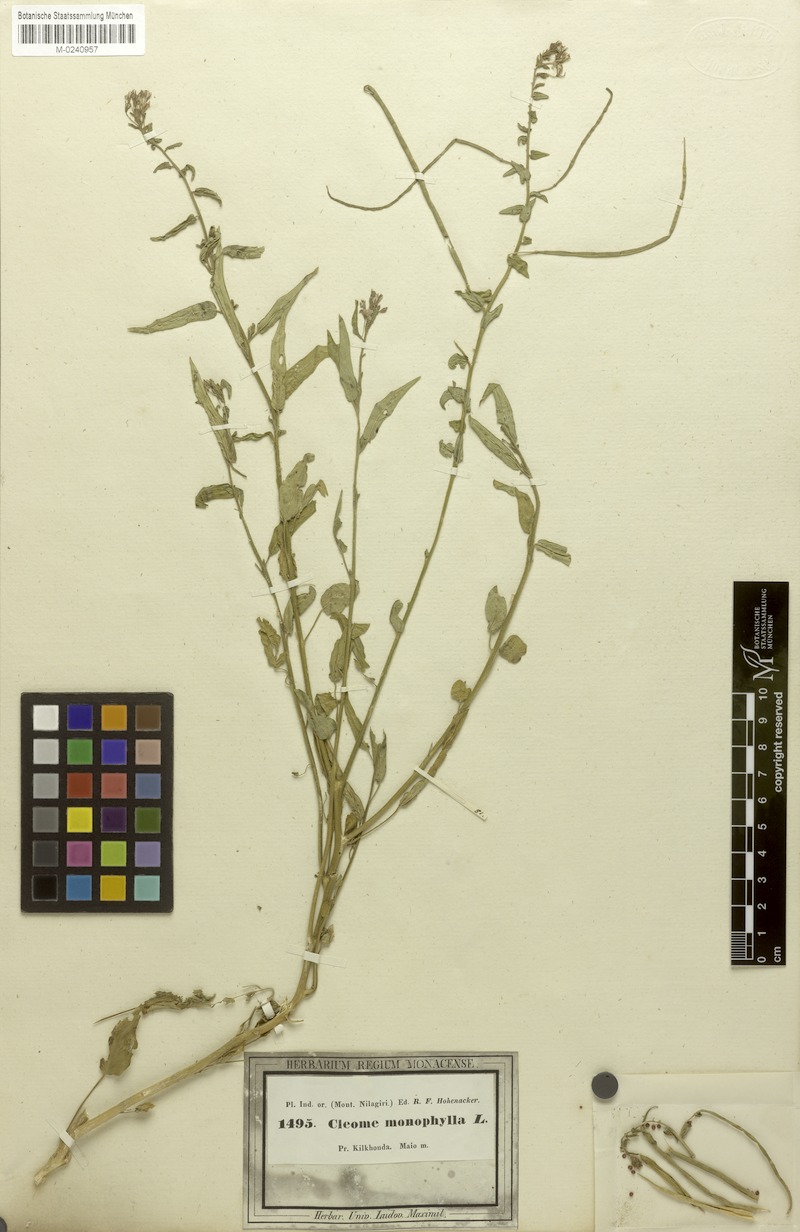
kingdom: Plantae
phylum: Tracheophyta
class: Magnoliopsida
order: Brassicales
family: Cleomaceae
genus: Sieruela
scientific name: Sieruela monophylla
